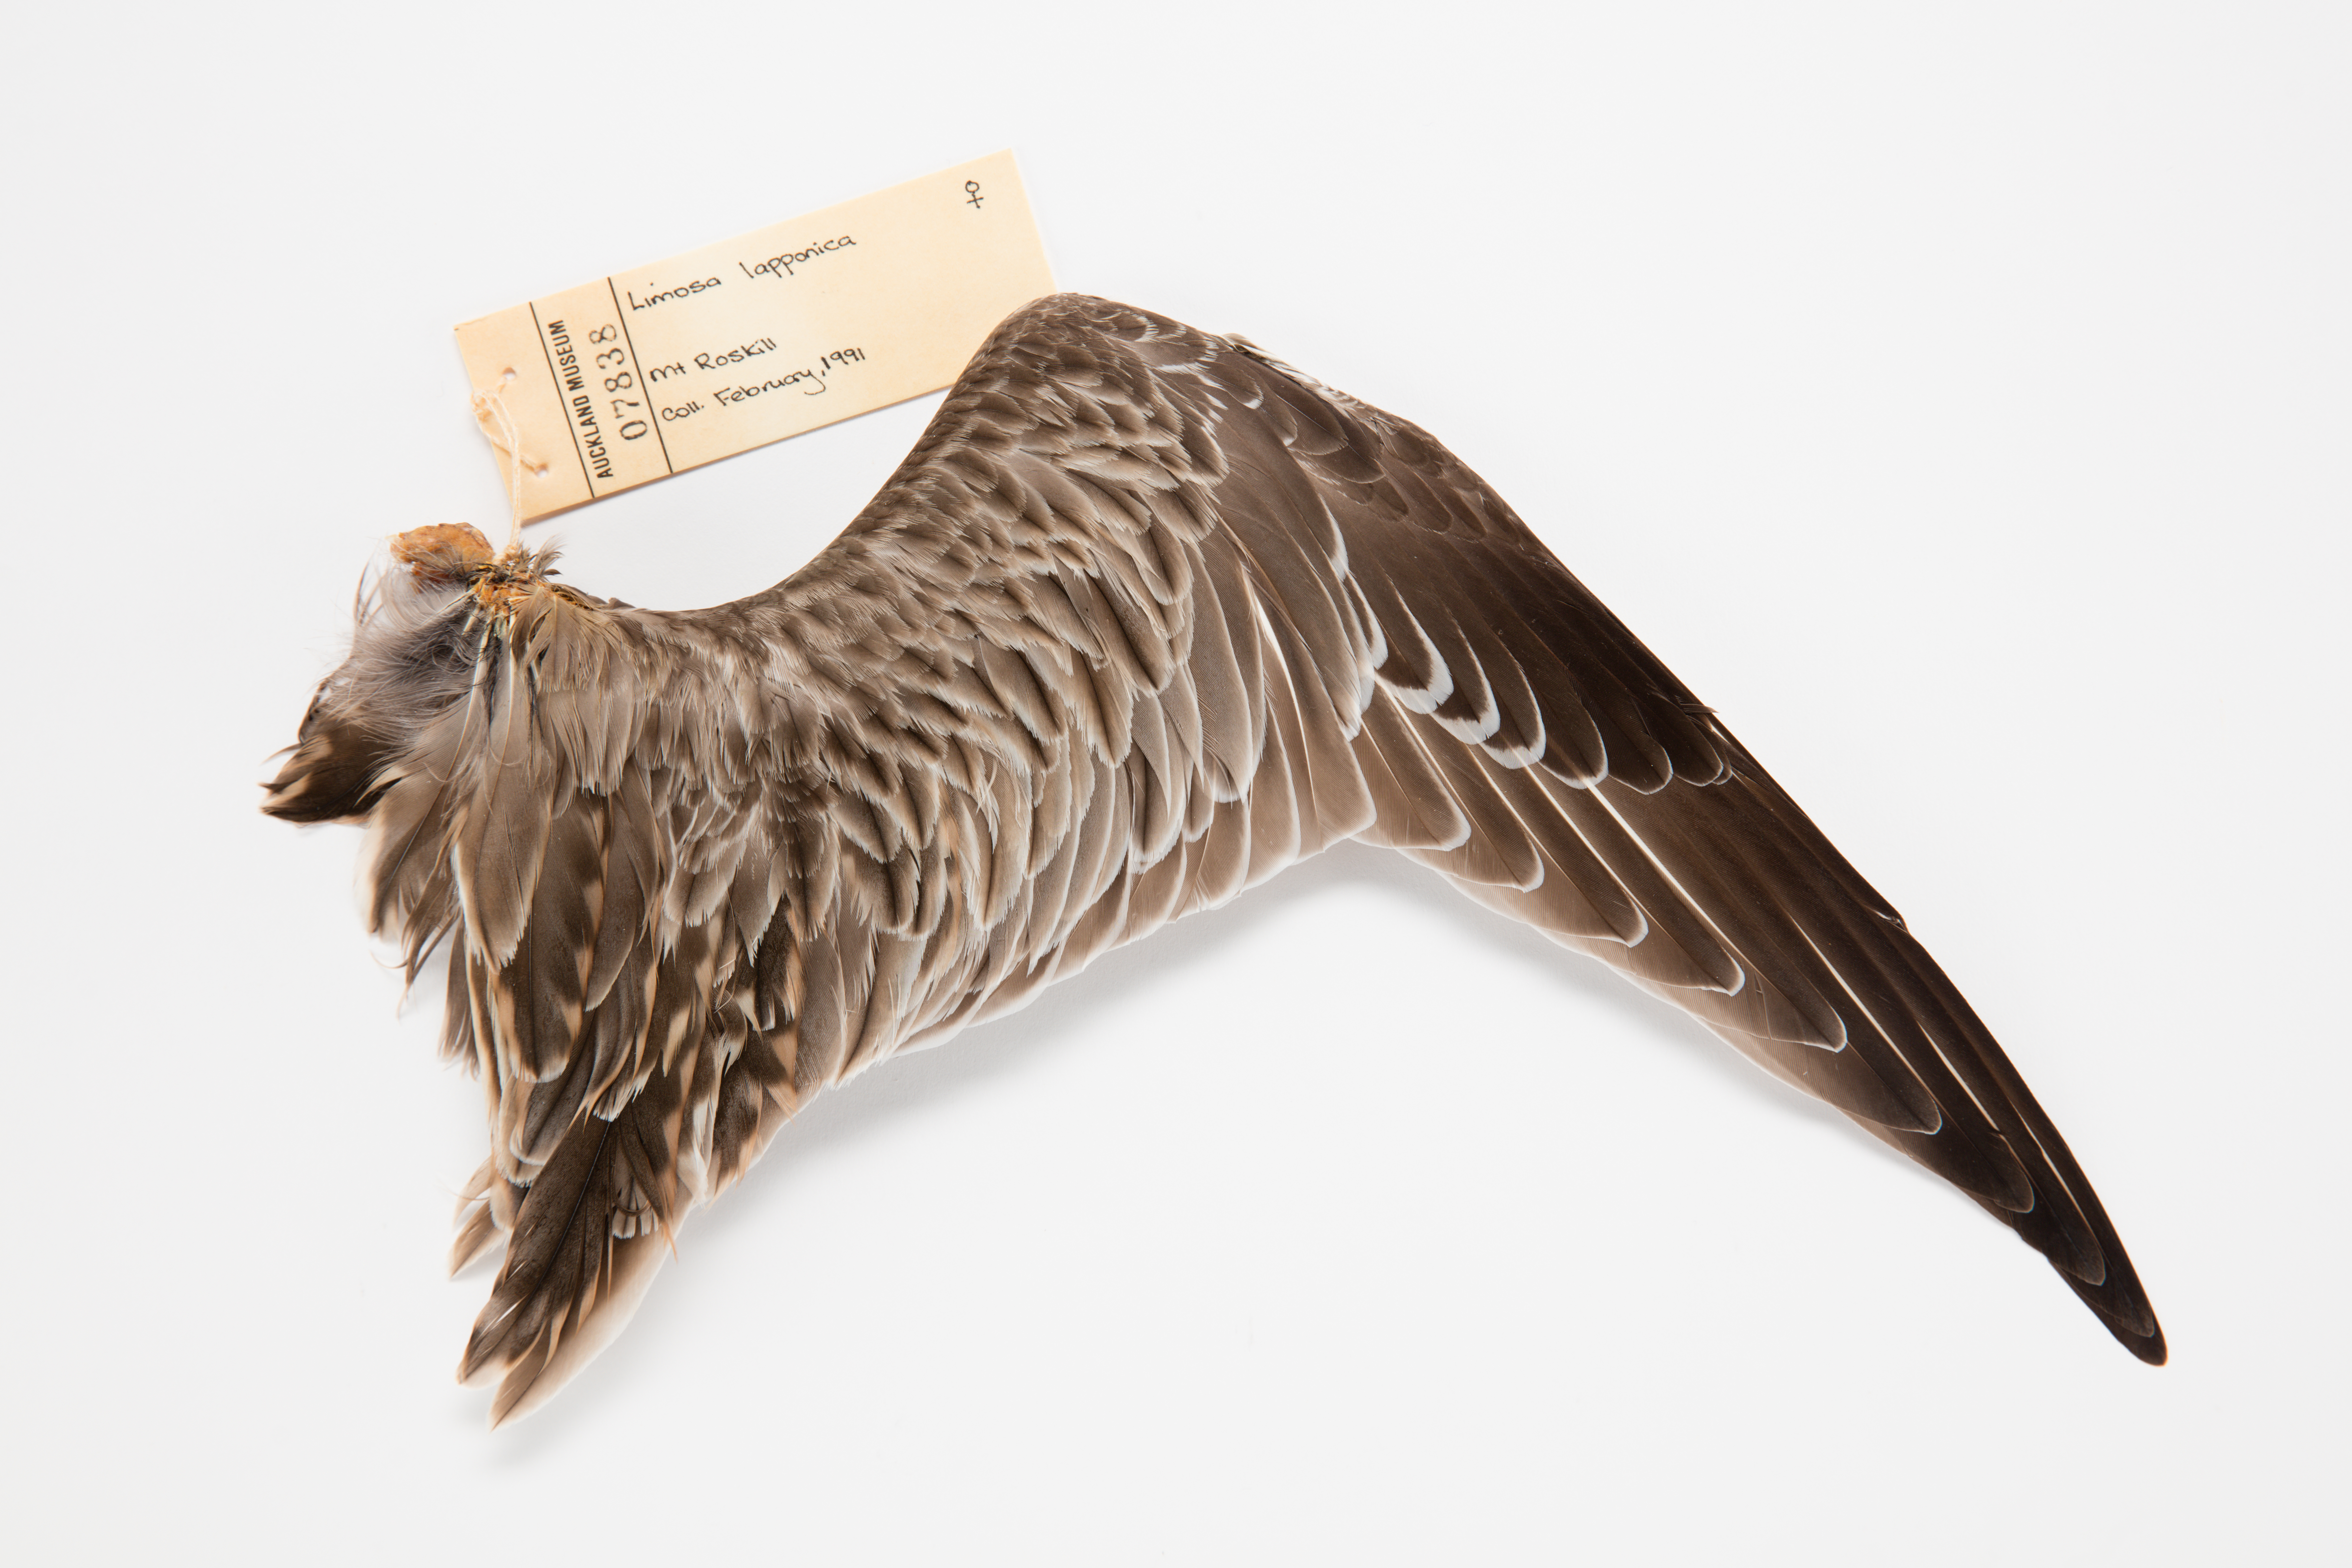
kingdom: Animalia
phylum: Chordata
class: Aves
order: Charadriiformes
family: Scolopacidae
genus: Limosa
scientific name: Limosa lapponica
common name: Bar-tailed godwit
